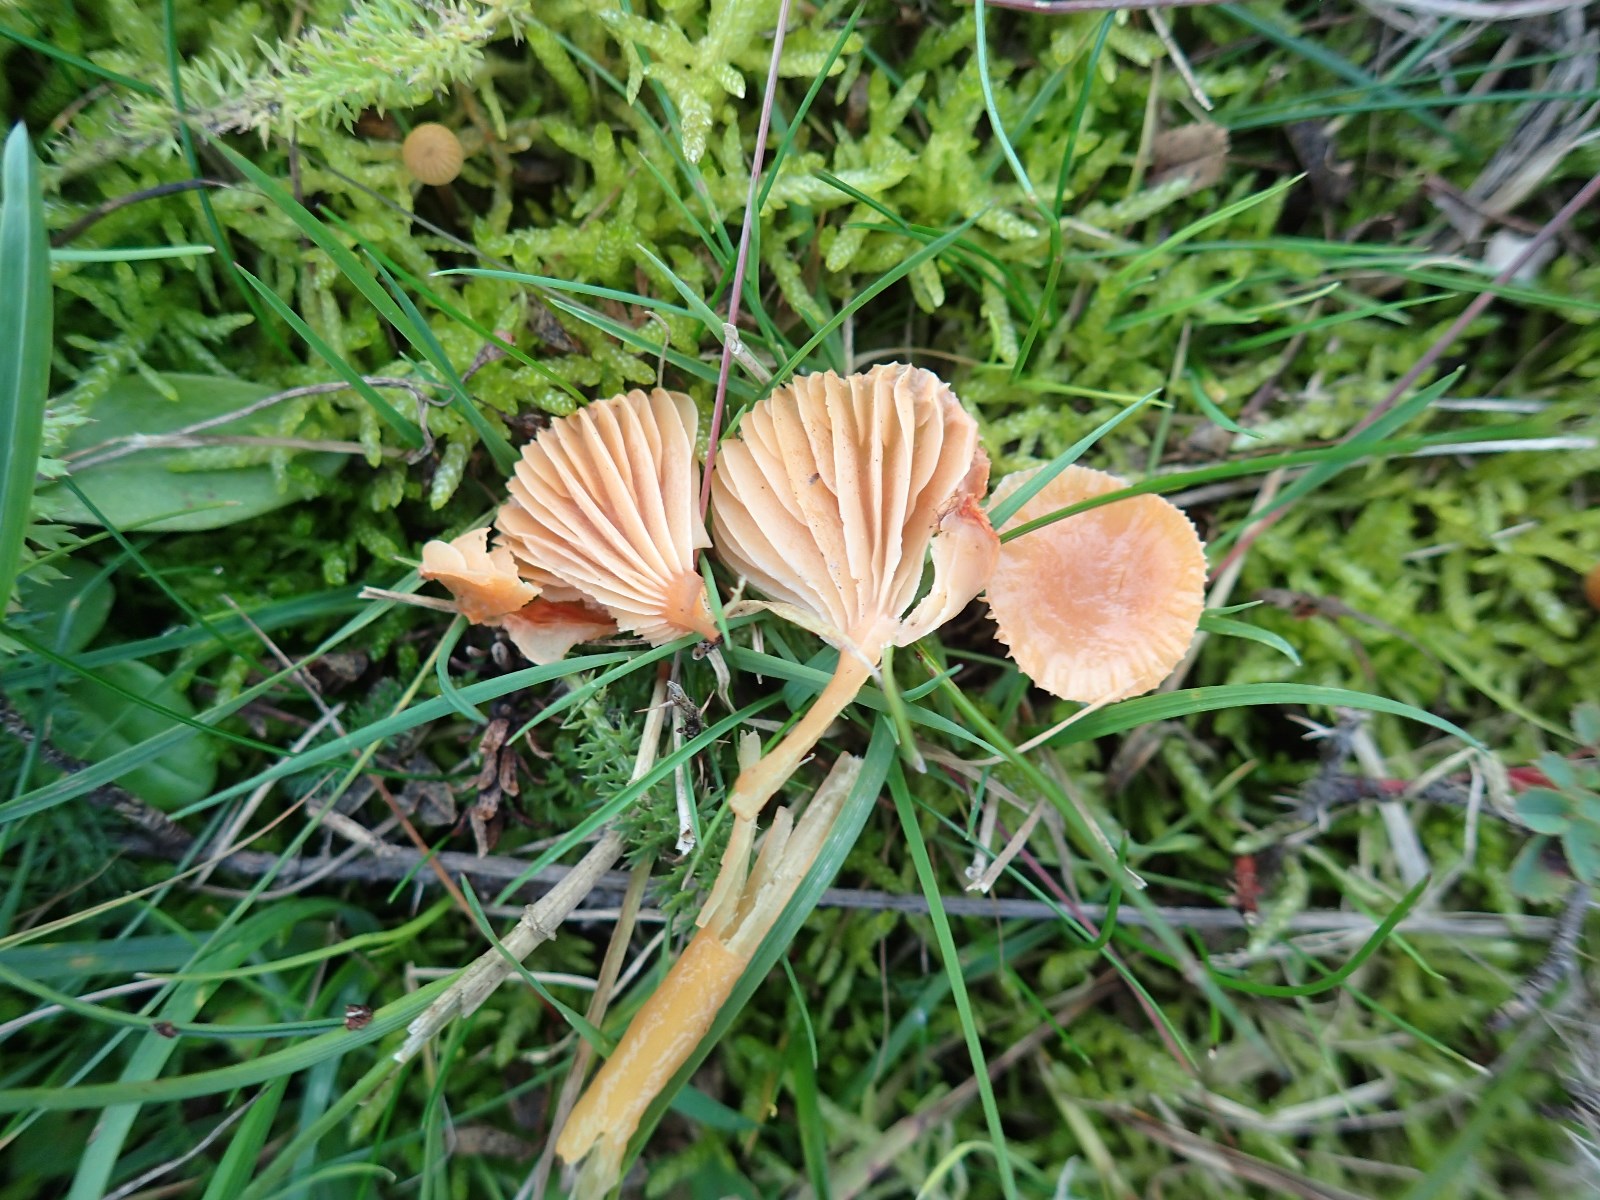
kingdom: Fungi
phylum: Basidiomycota
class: Agaricomycetes
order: Agaricales
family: Hygrophoraceae
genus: Gliophorus
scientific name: Gliophorus laetus
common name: brusk-vokshat
